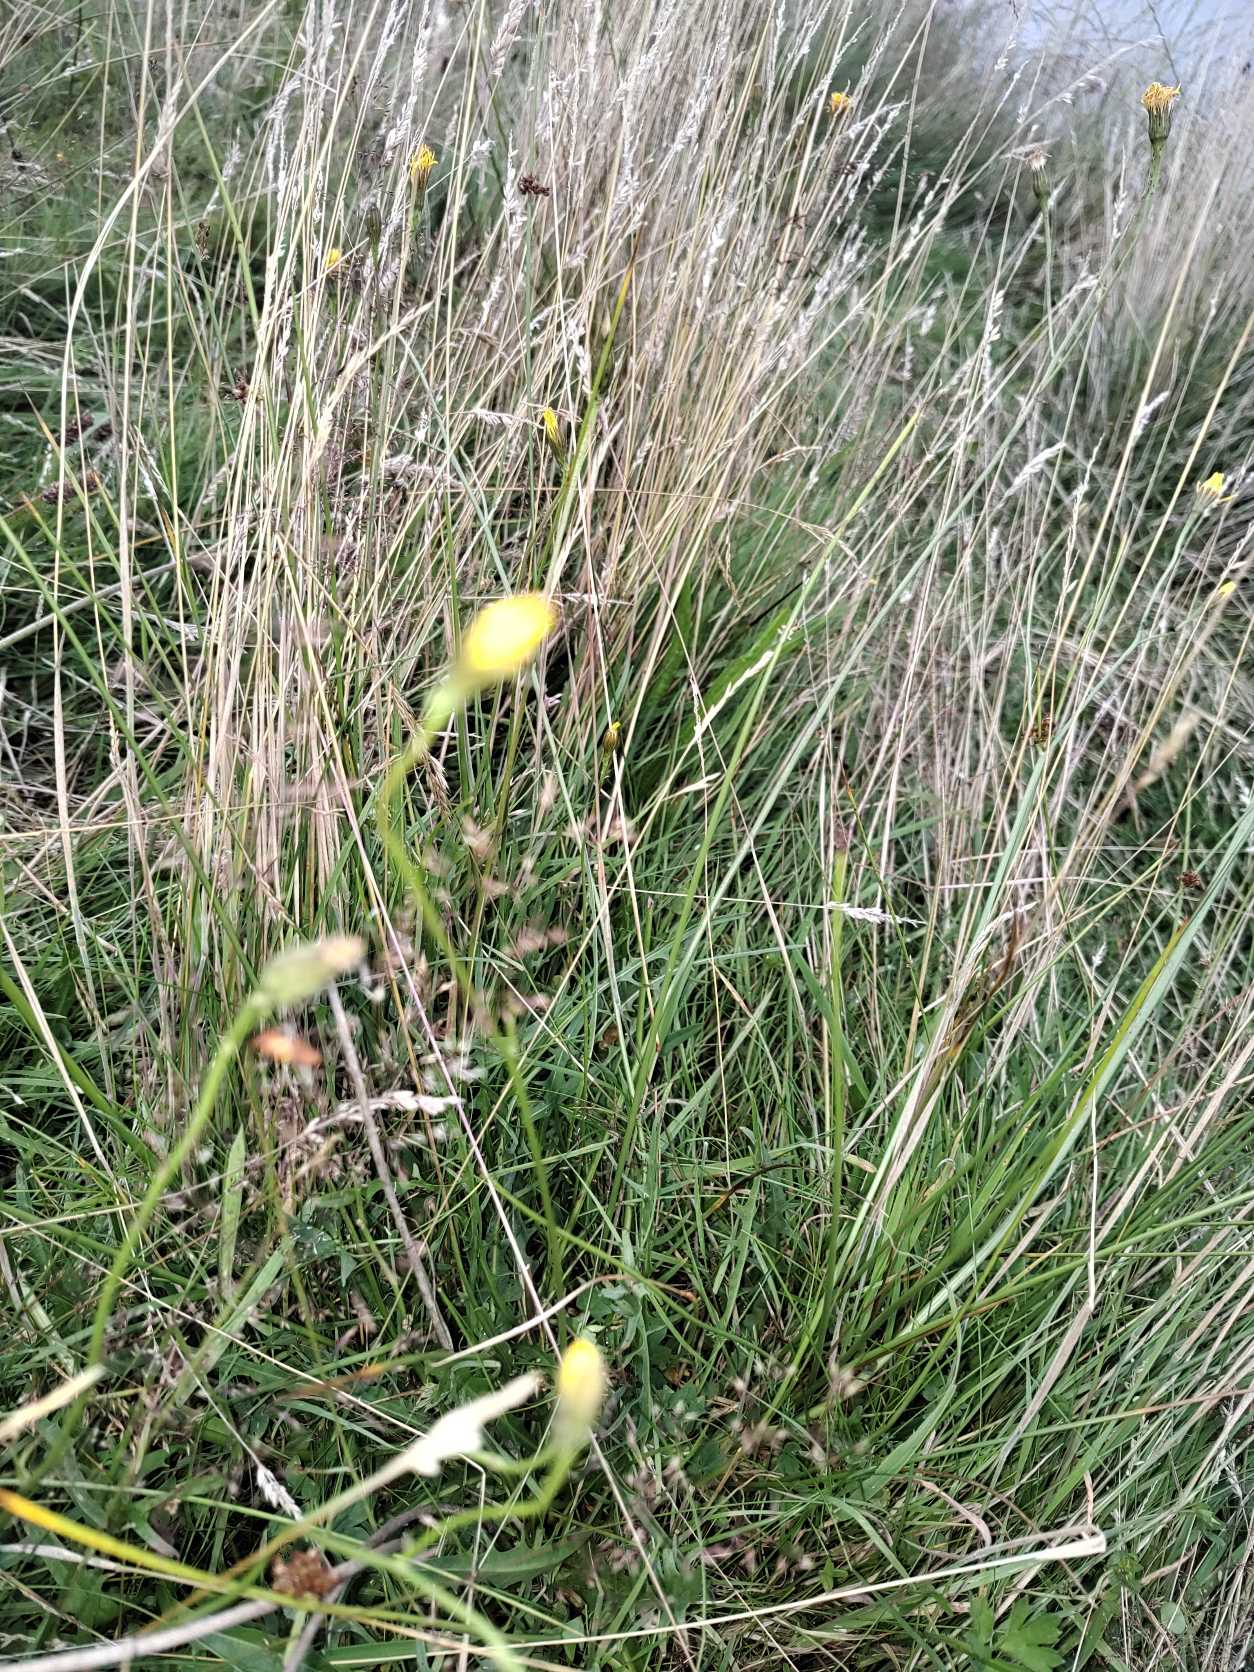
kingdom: Plantae
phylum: Tracheophyta
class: Magnoliopsida
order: Asterales
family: Asteraceae
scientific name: Asteraceae
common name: Kurvblomstfamilien
